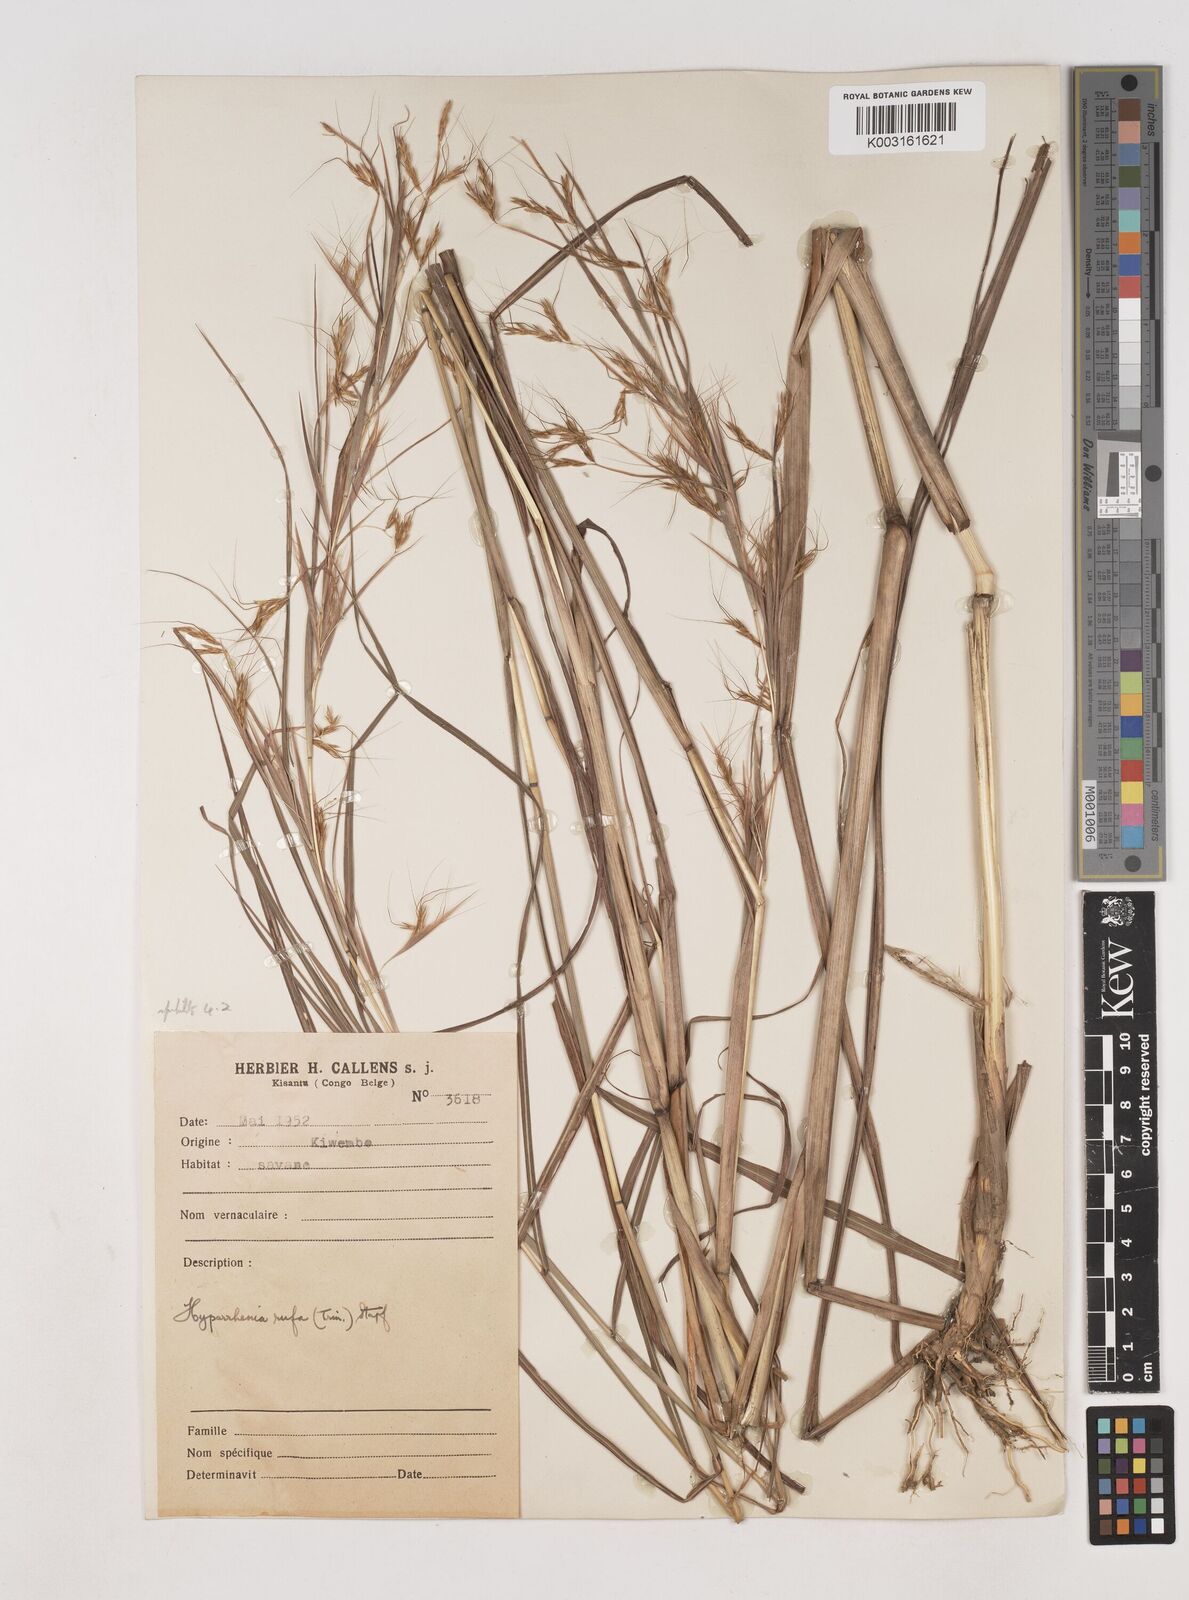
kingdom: Plantae
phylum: Tracheophyta
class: Liliopsida
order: Poales
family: Poaceae
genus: Hyparrhenia
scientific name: Hyparrhenia rufa
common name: Jaraguagrass
